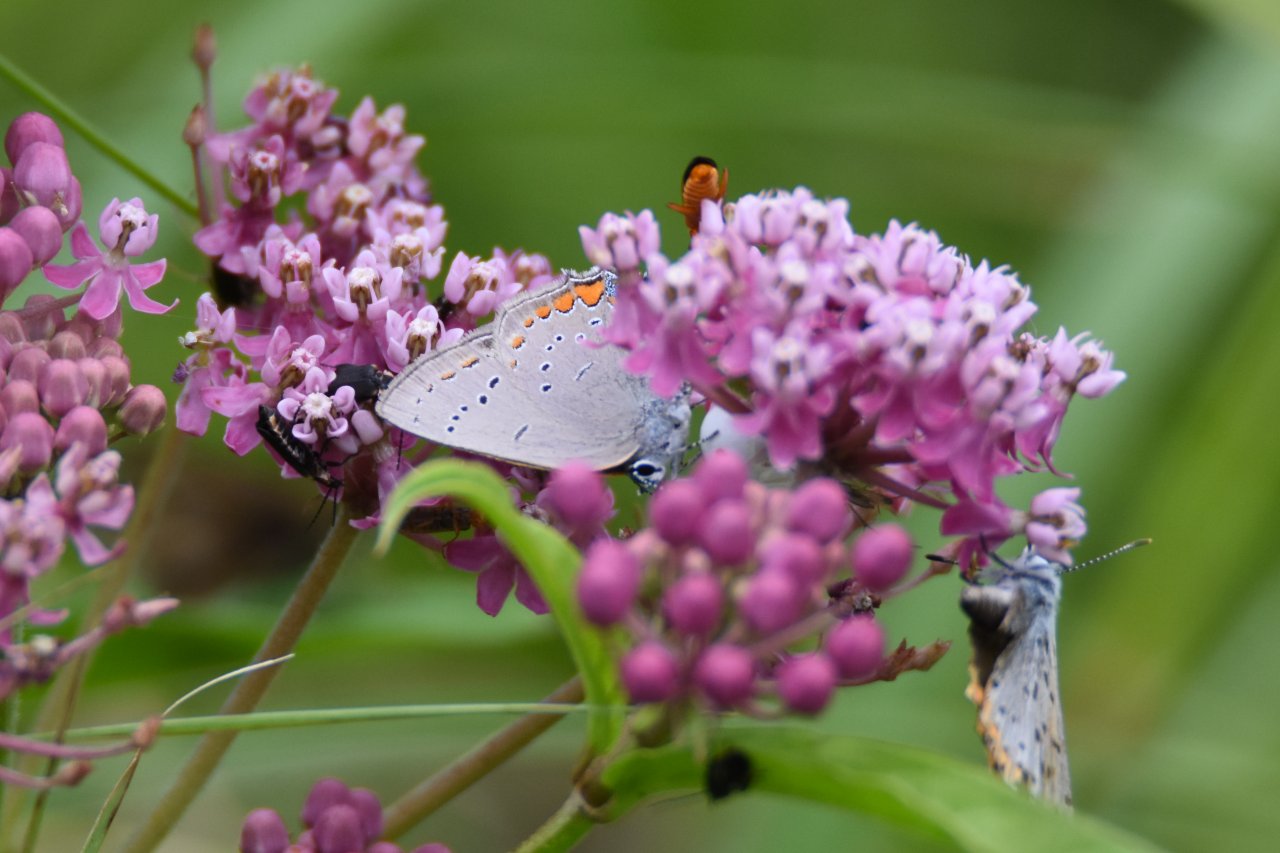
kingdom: Animalia
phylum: Arthropoda
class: Insecta
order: Lepidoptera
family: Lycaenidae
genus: Strymon
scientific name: Strymon acadica
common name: Acadian Hairstreak
